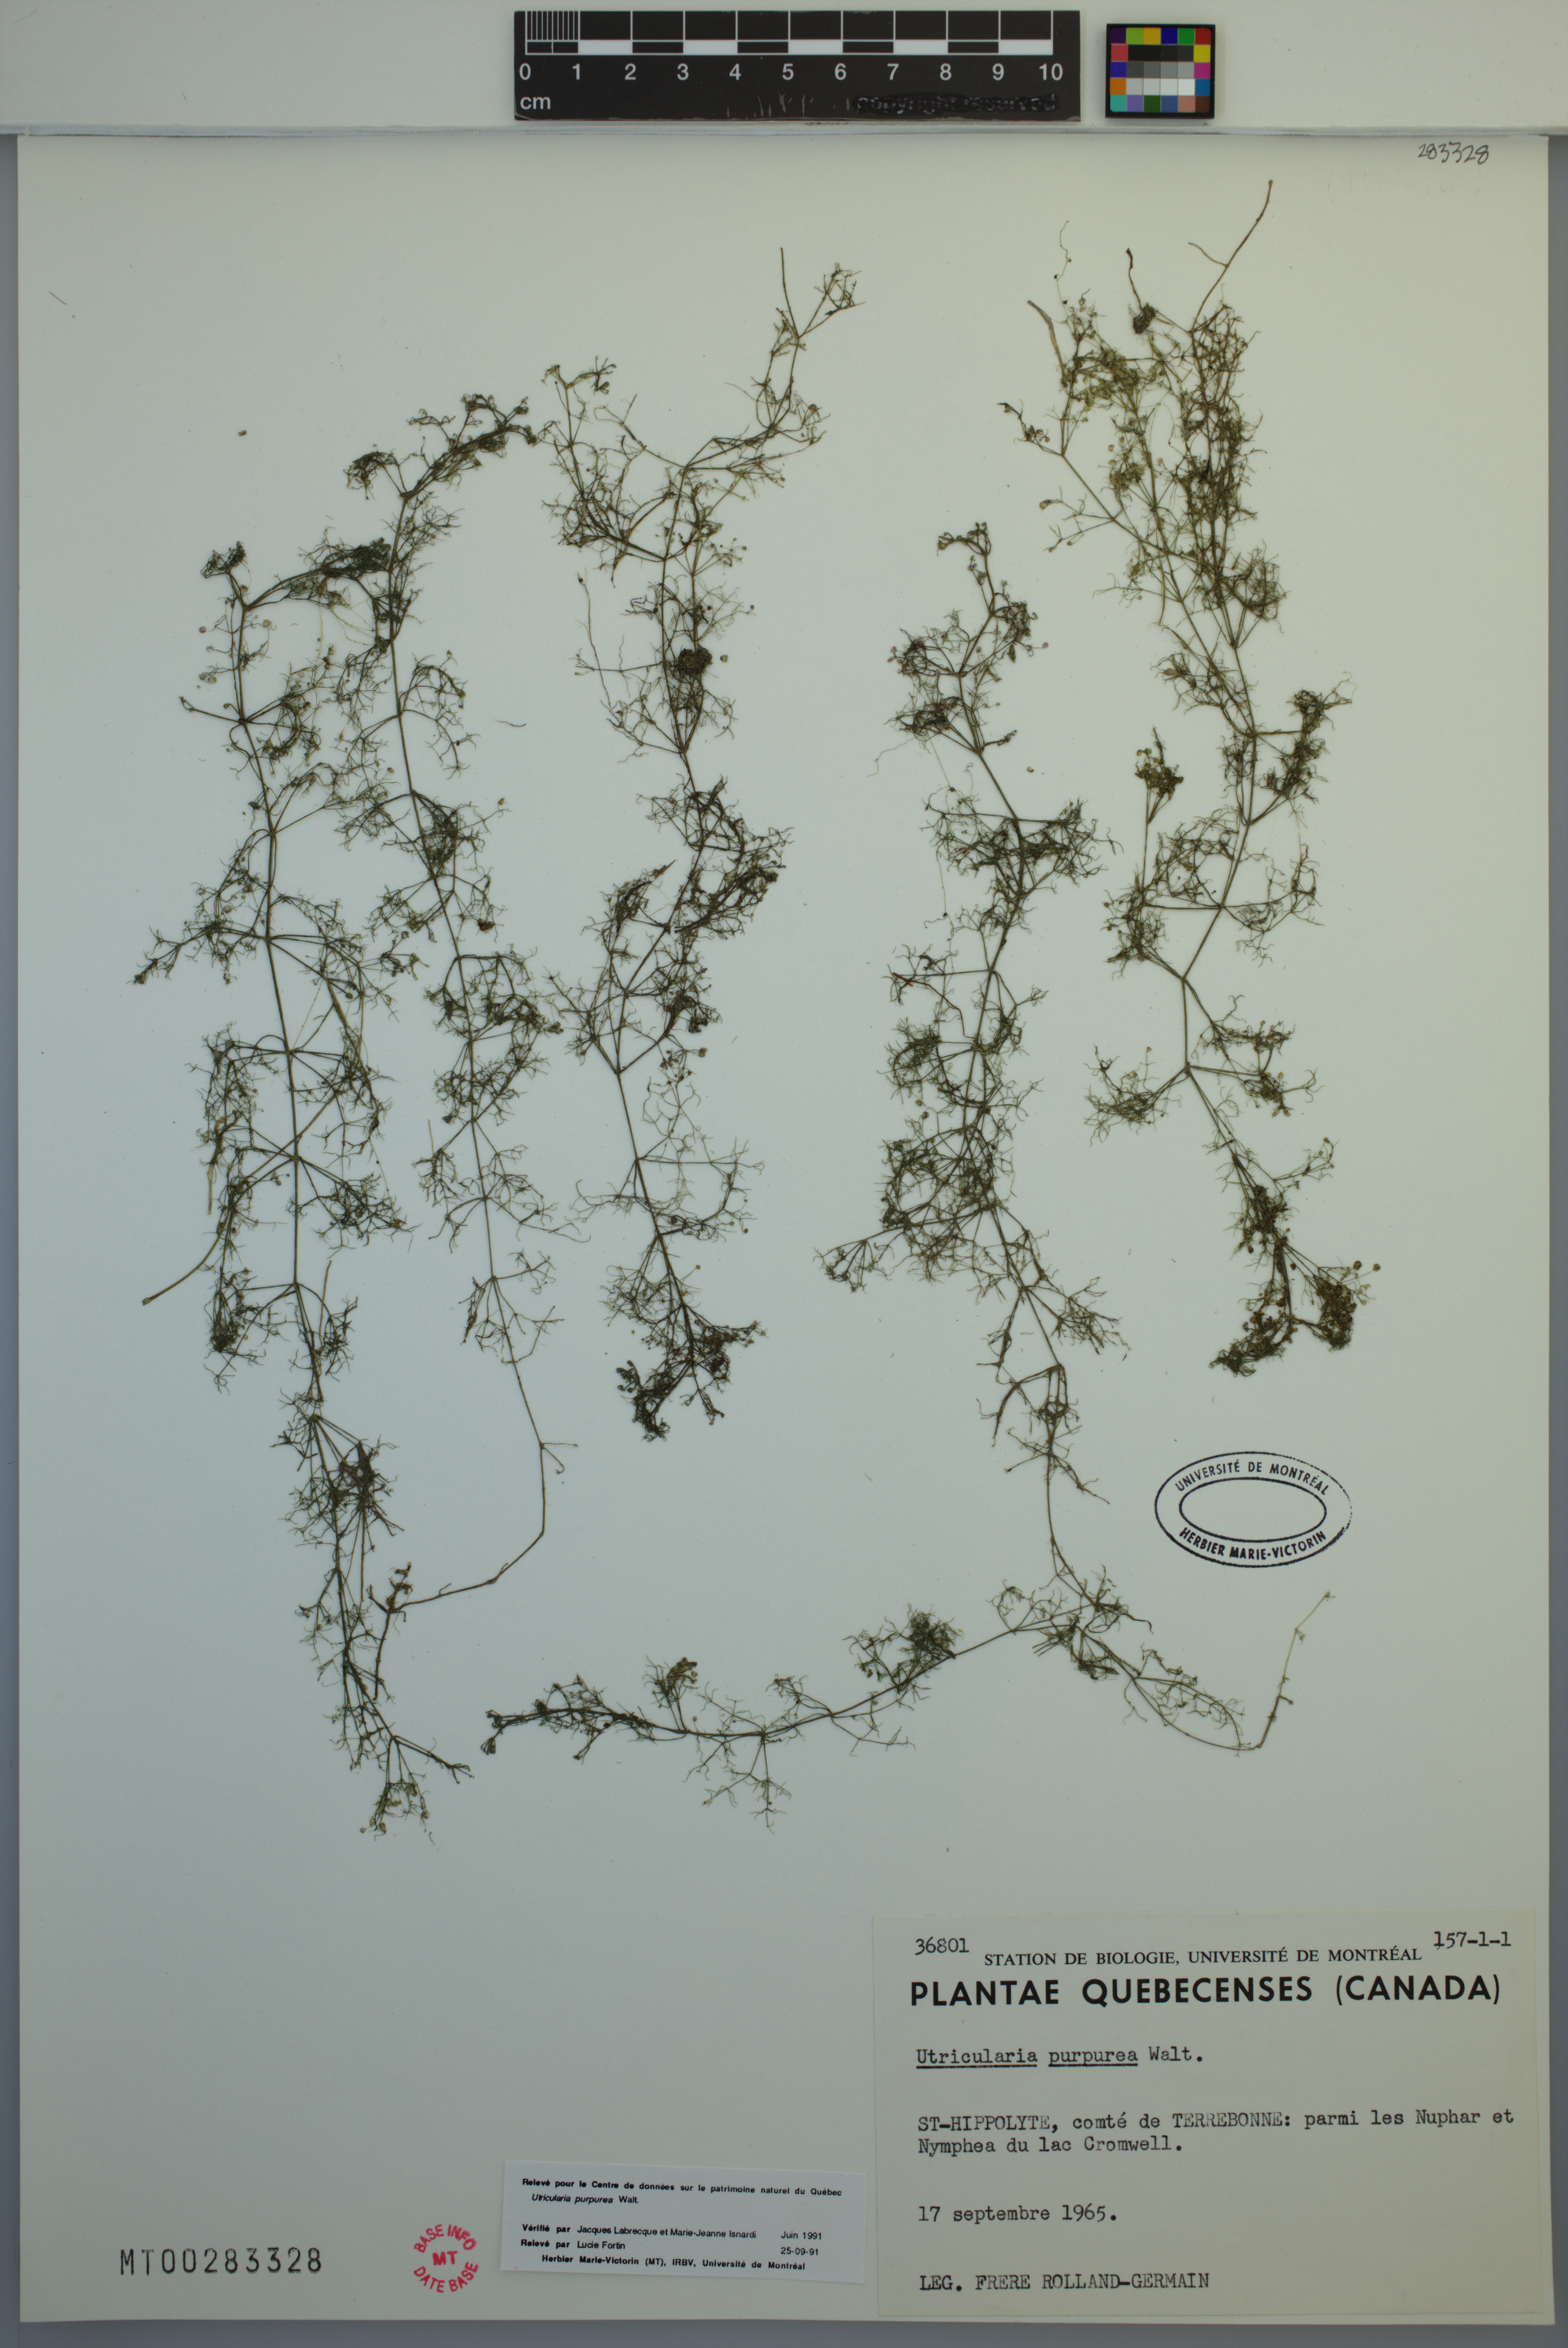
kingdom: Plantae
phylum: Tracheophyta
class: Magnoliopsida
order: Lamiales
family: Lentibulariaceae
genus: Utricularia
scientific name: Utricularia purpurea
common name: Eastern purple bladderwort
